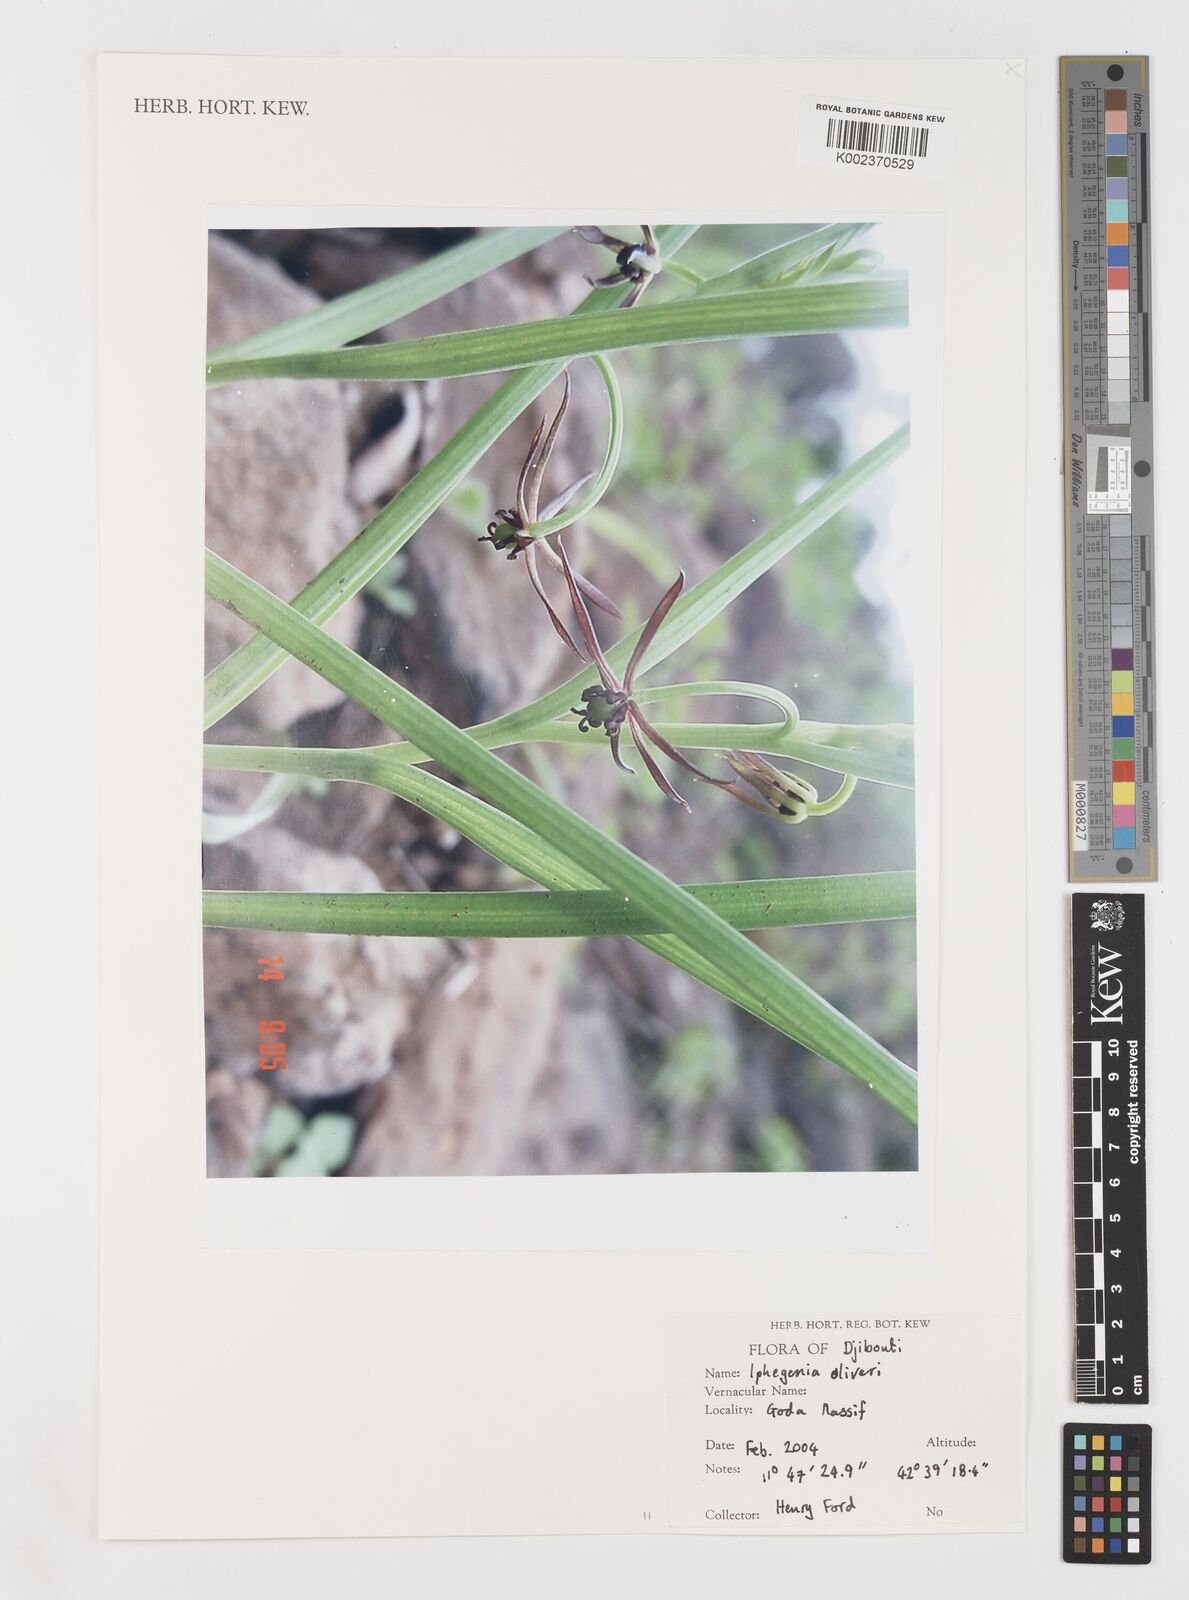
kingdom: Plantae
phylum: Tracheophyta
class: Liliopsida
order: Liliales
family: Colchicaceae
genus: Iphigenia
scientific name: Iphigenia oliveri
